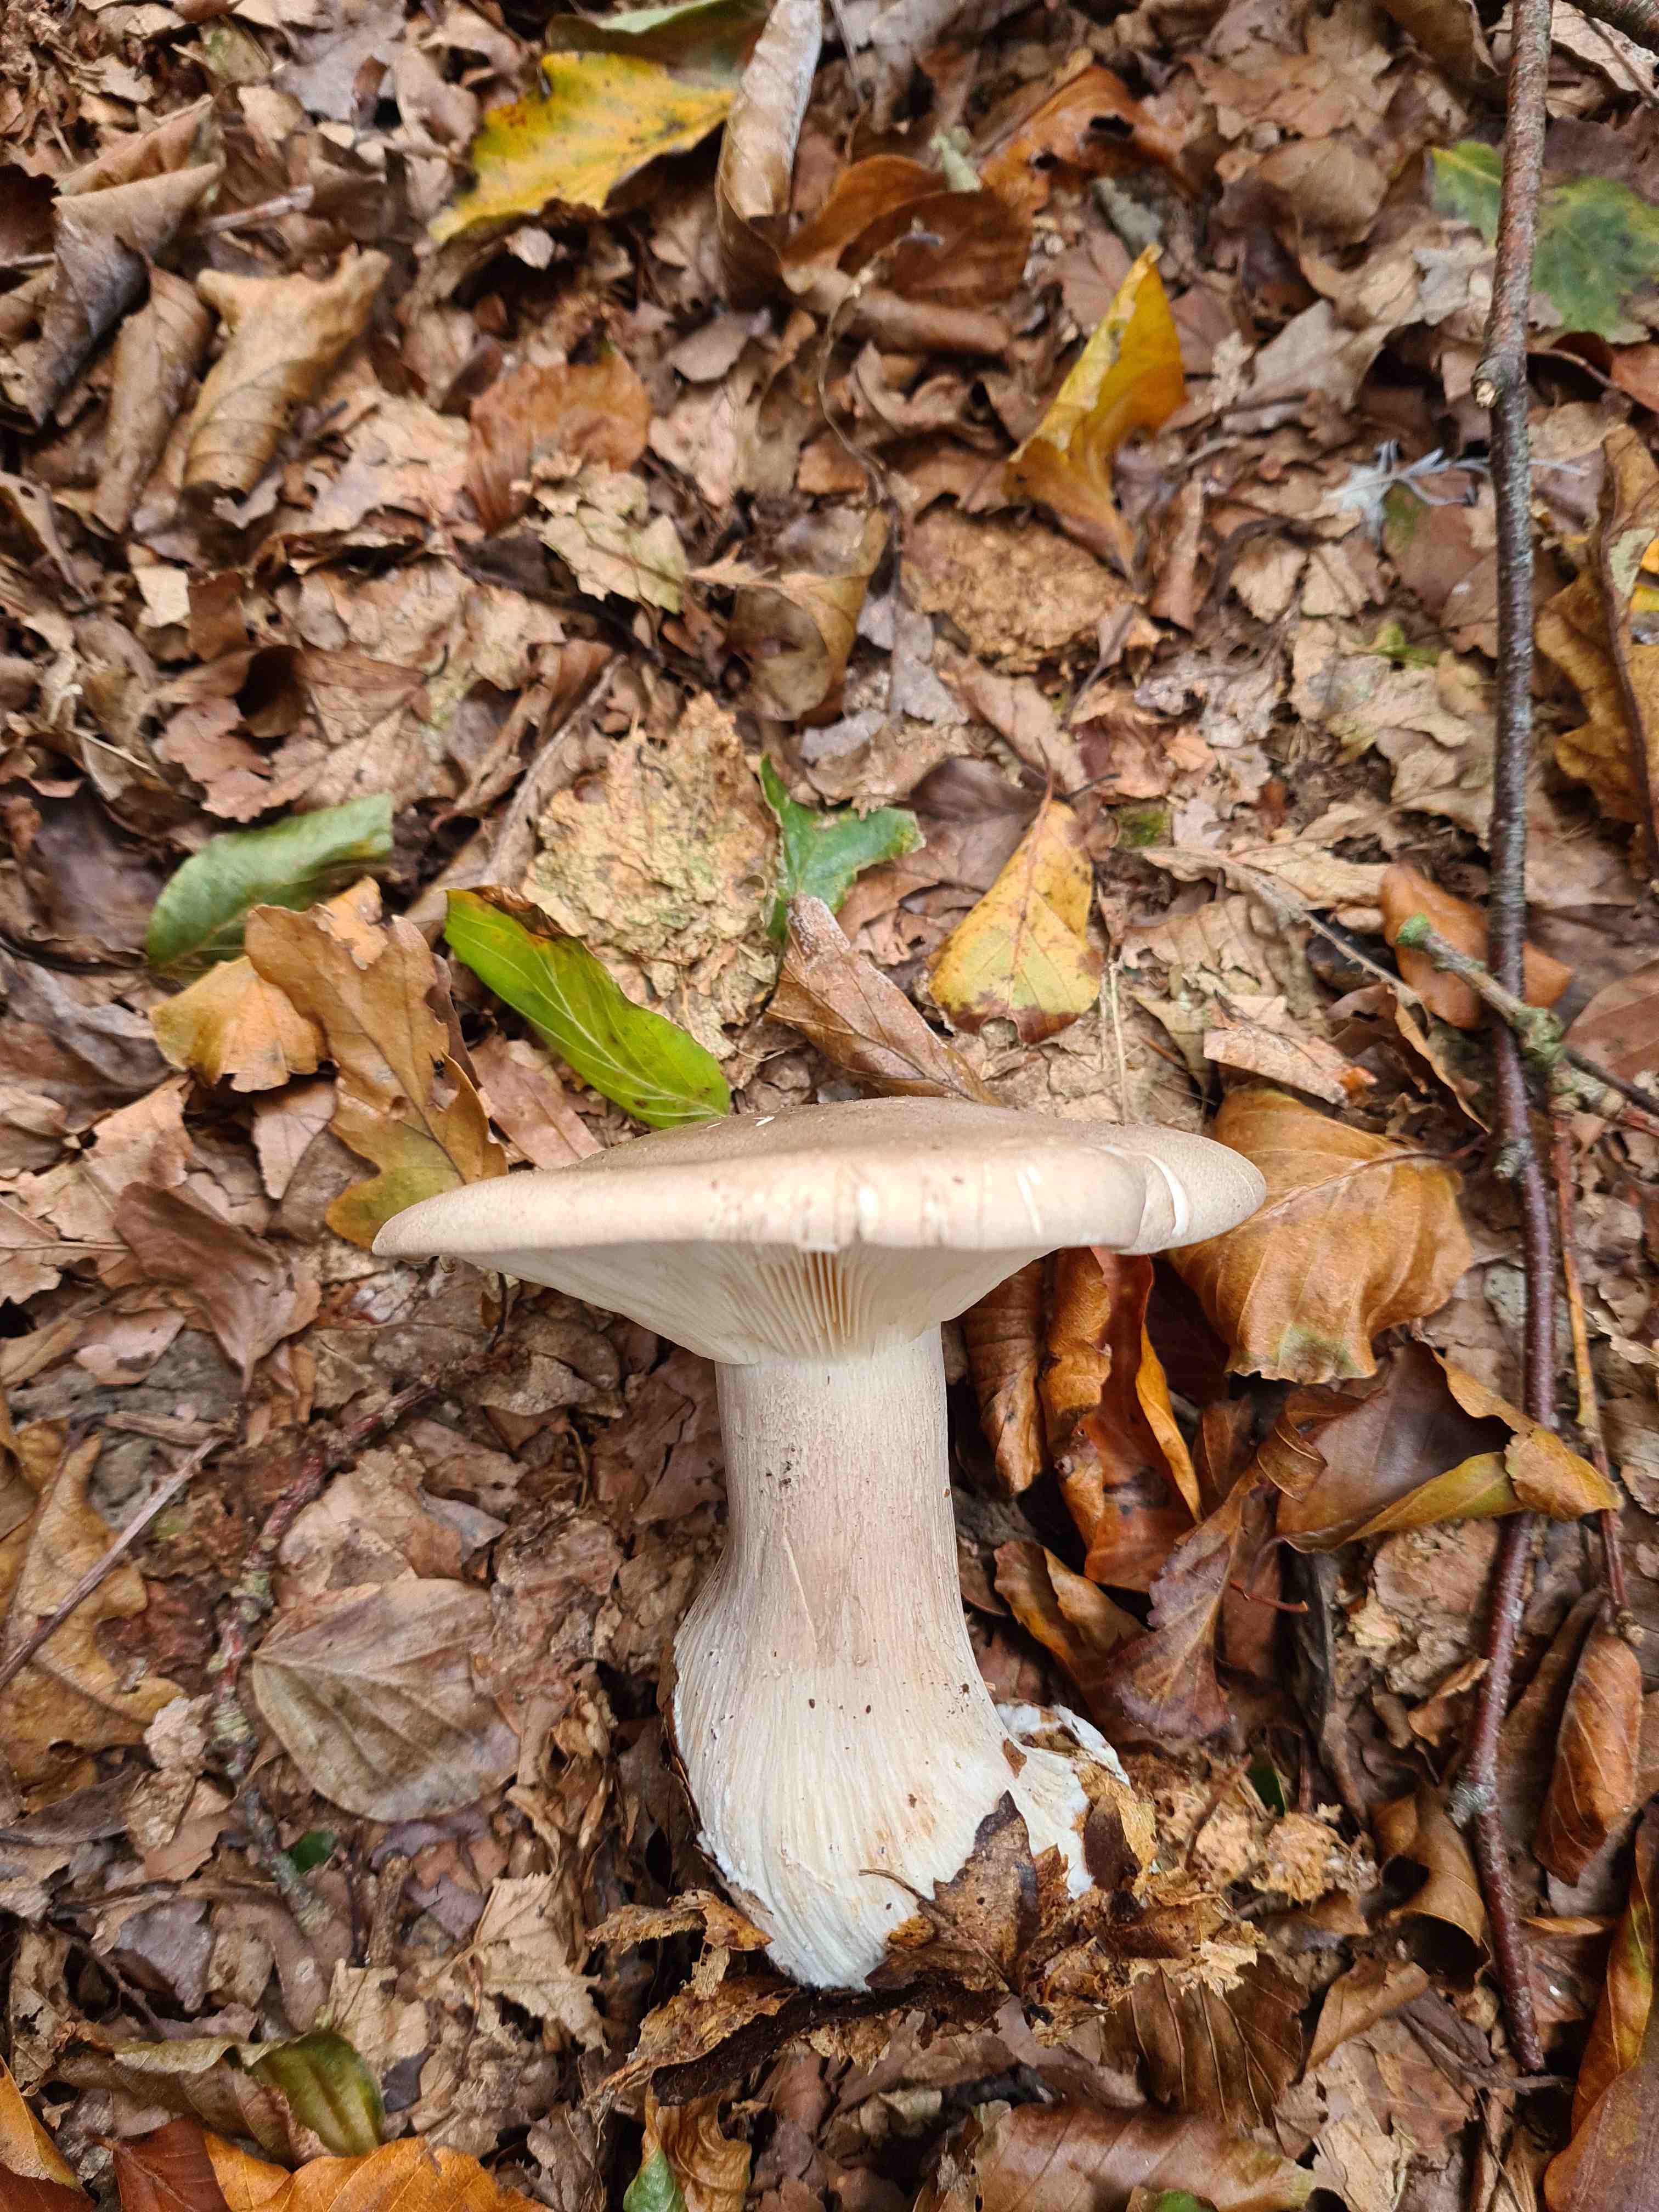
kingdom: Fungi
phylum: Basidiomycota
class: Agaricomycetes
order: Agaricales
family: Tricholomataceae
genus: Clitocybe
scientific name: Clitocybe nebularis
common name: tåge-tragthat
